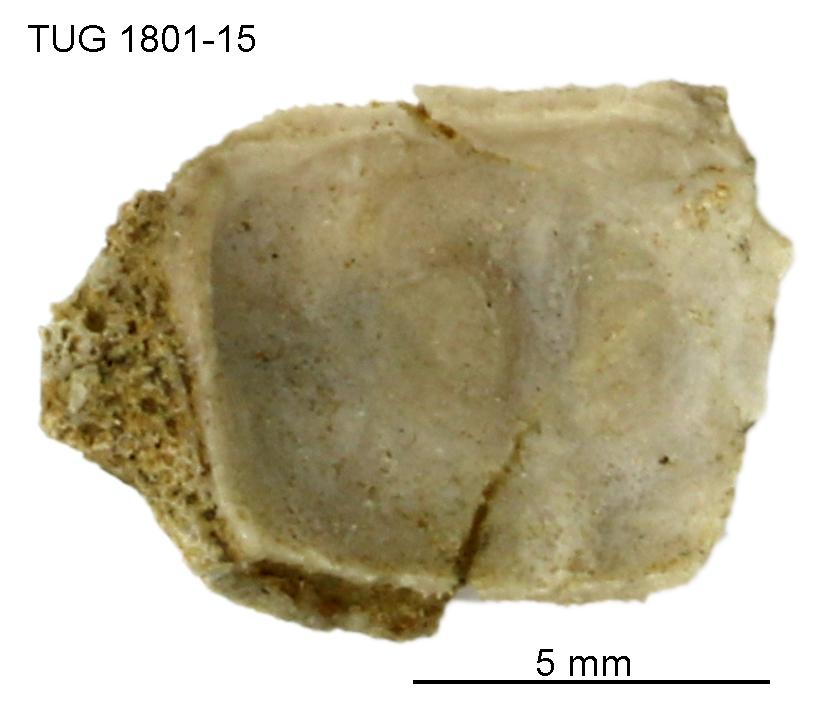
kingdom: Animalia
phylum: Brachiopoda
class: Craniata
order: Craniida
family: Craniidae
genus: Philhedra
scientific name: Philhedra
